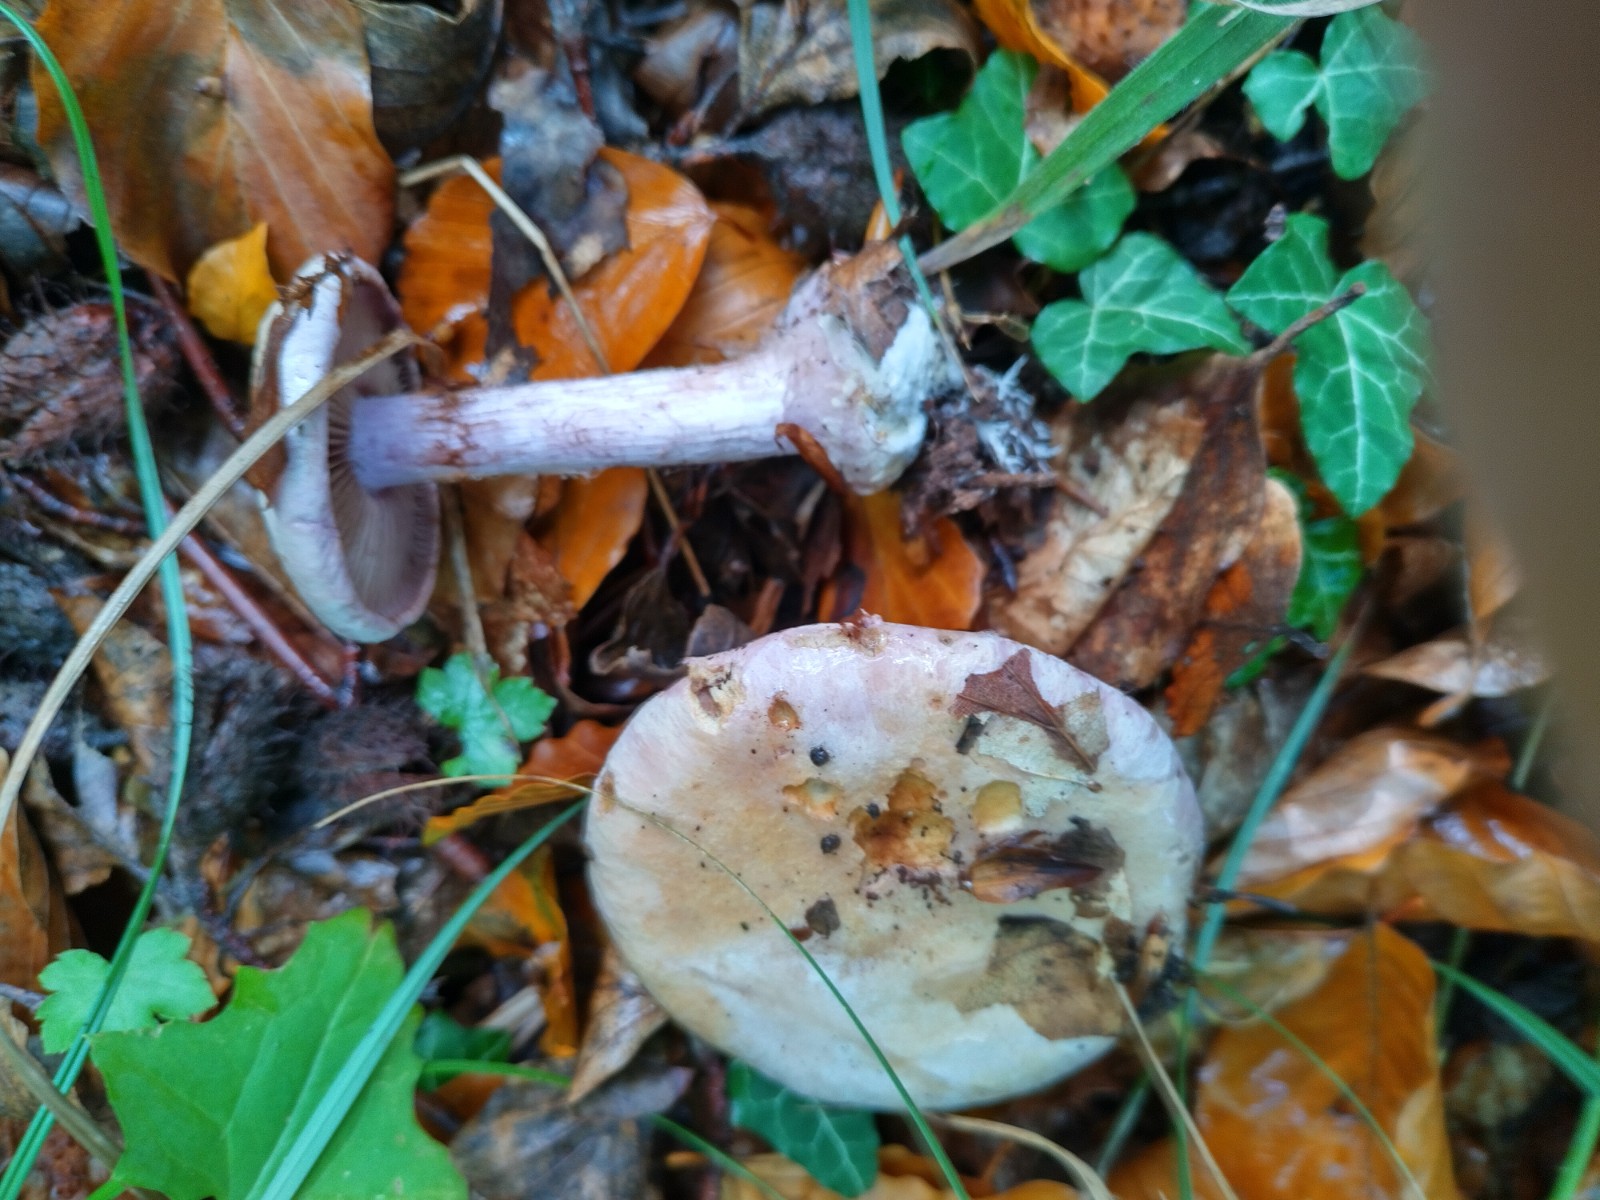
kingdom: Fungi
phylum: Basidiomycota
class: Agaricomycetes
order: Agaricales
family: Cortinariaceae
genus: Calonarius
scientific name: Calonarius suaveolens
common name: sødtduftende slørhat
